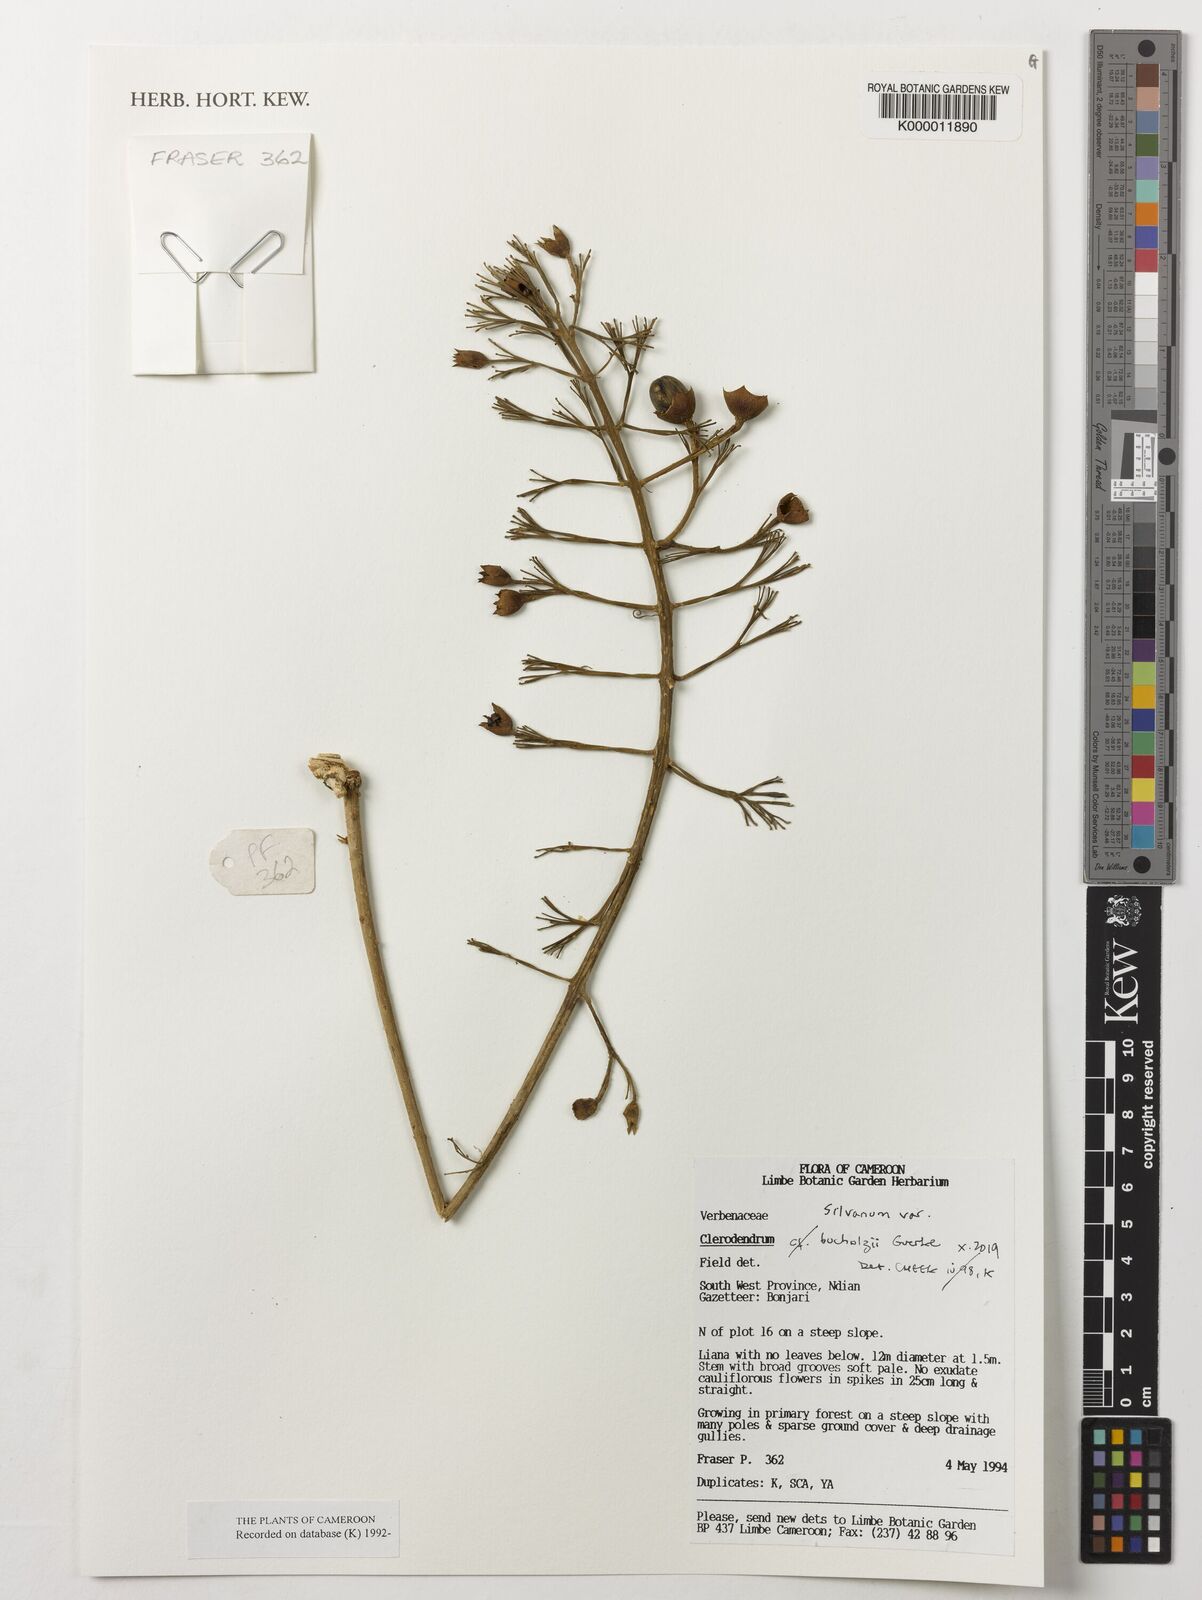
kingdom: Plantae
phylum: Tracheophyta
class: Magnoliopsida
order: Lamiales
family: Lamiaceae
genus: Clerodendrum
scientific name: Clerodendrum silvanum
